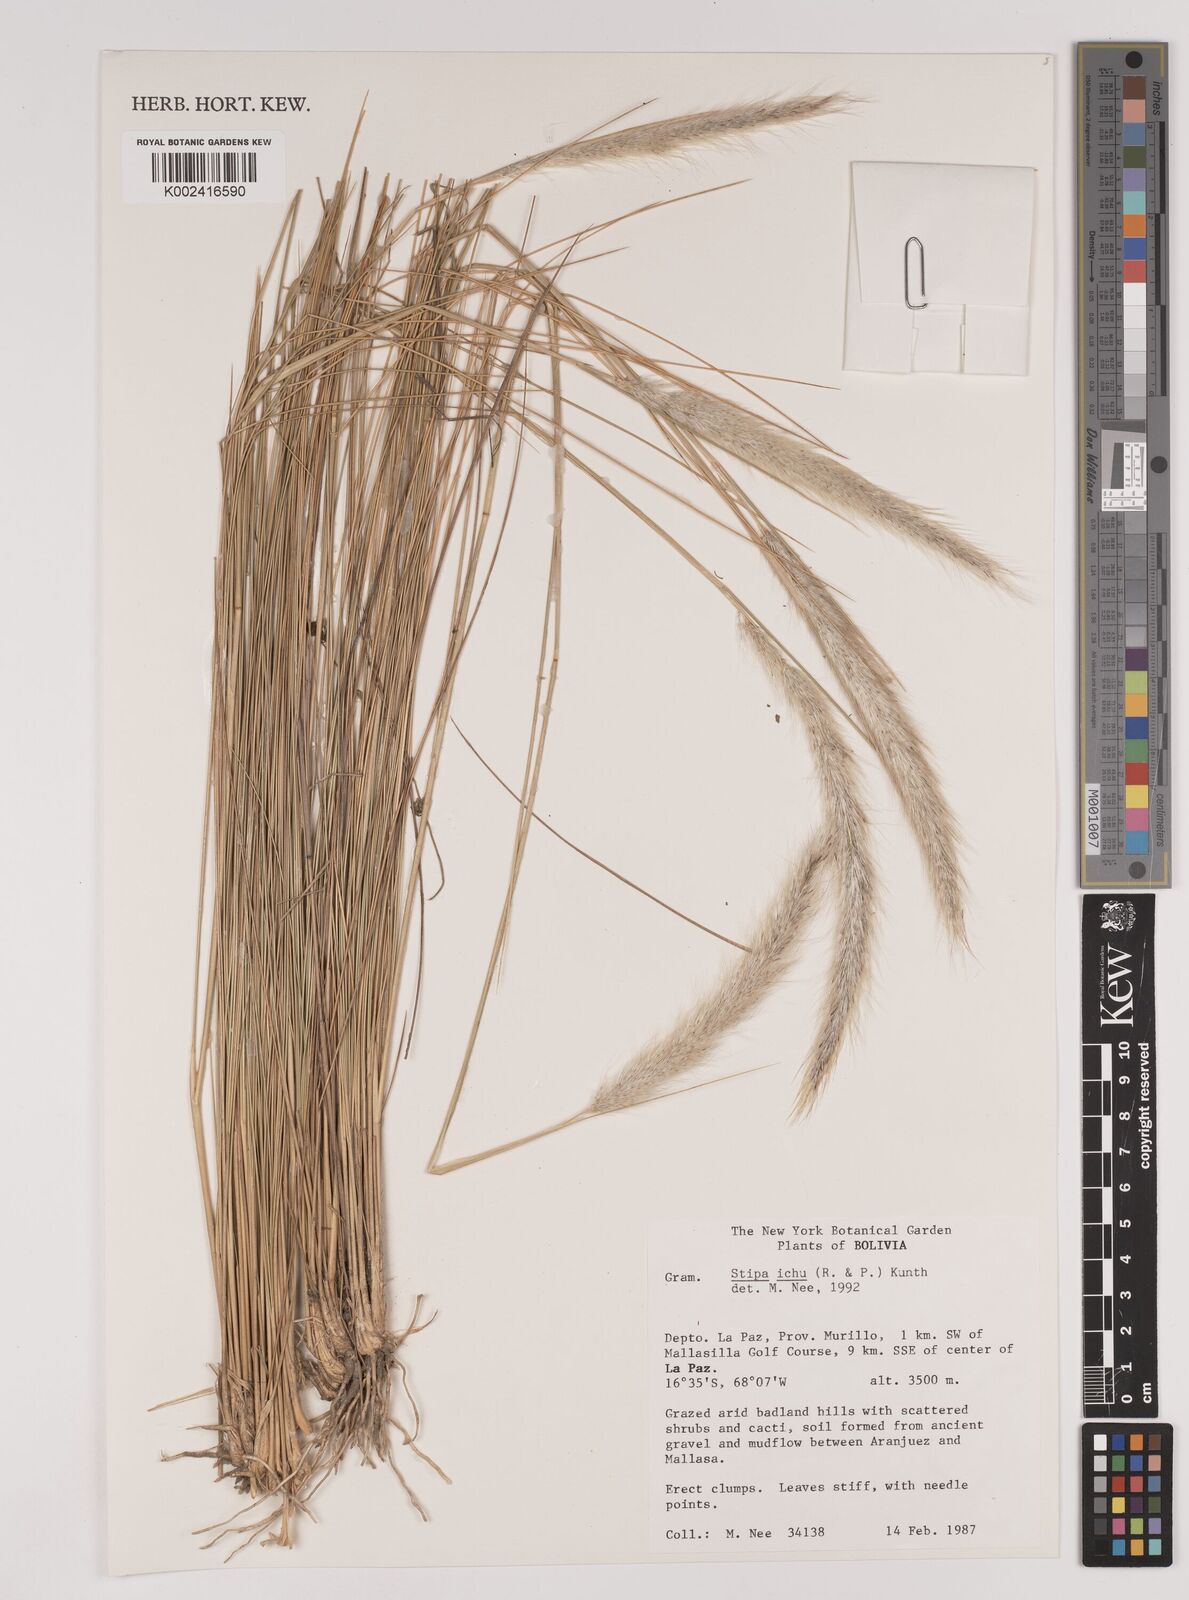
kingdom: Plantae
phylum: Tracheophyta
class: Liliopsida
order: Poales
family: Poaceae
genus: Jarava
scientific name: Jarava leptostachya
